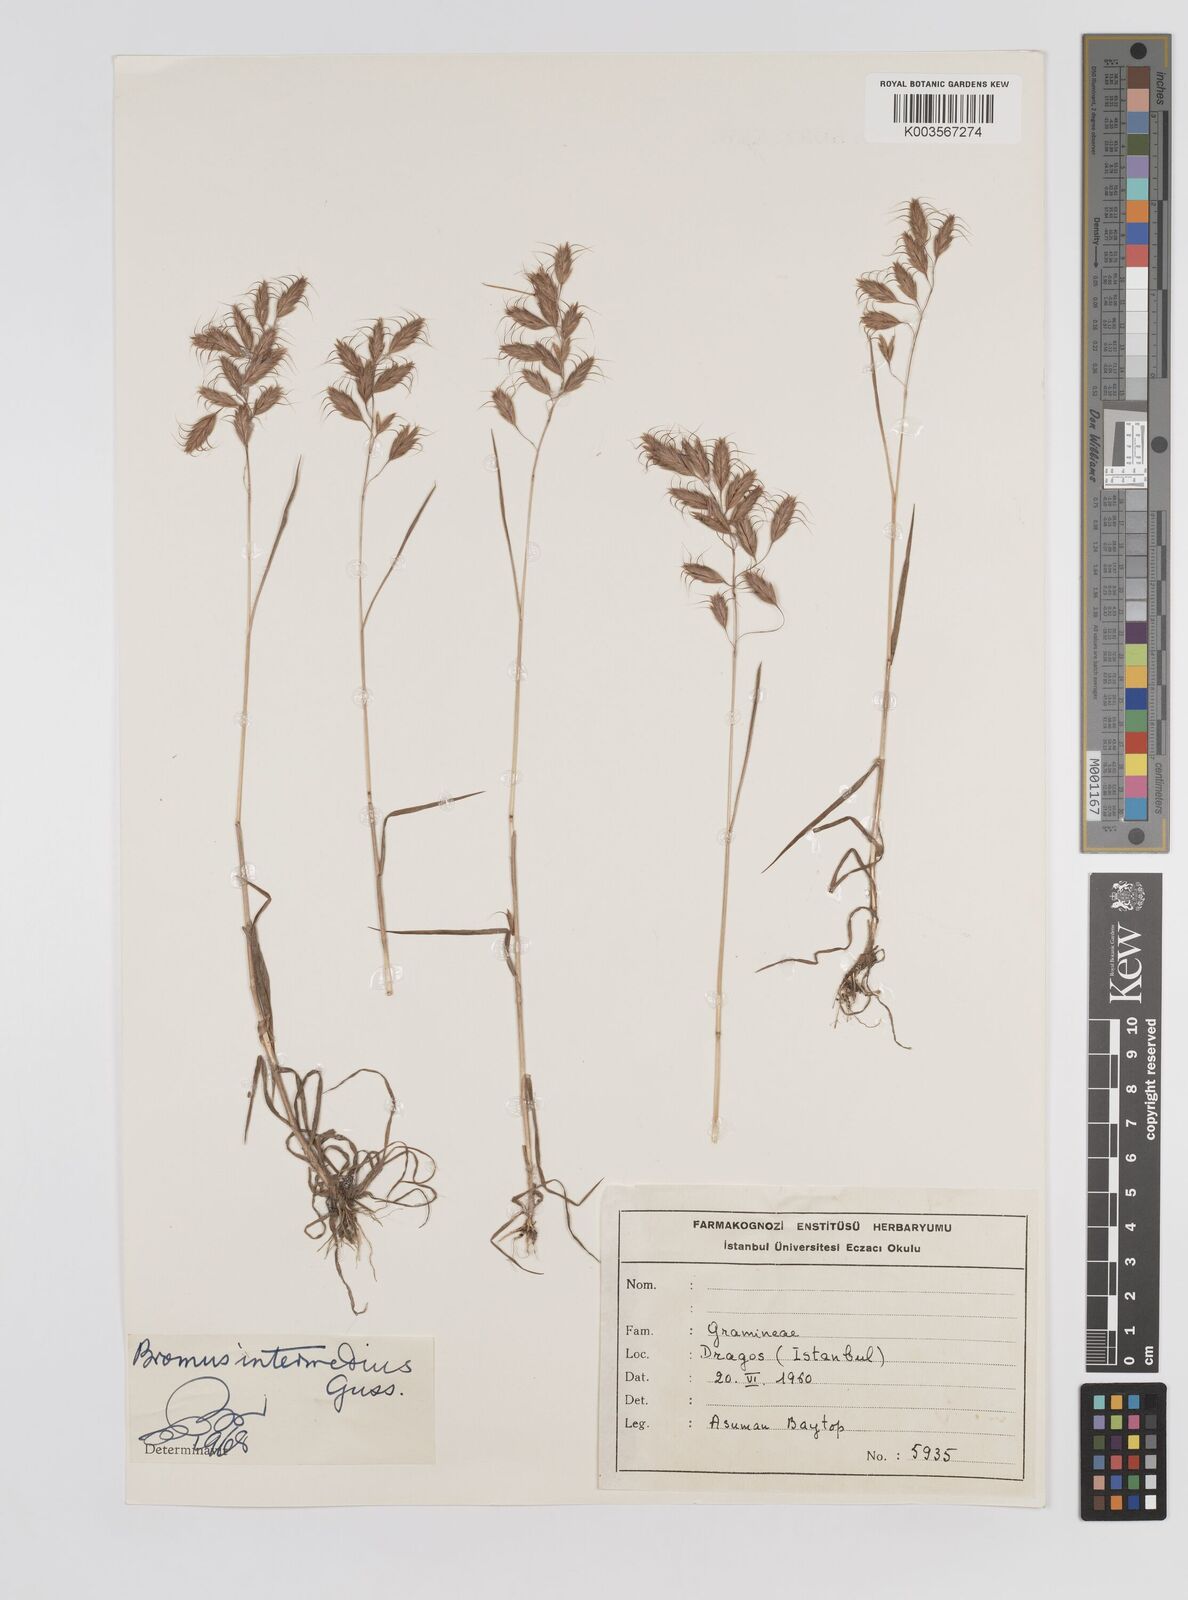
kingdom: Plantae
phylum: Tracheophyta
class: Liliopsida
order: Poales
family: Poaceae
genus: Bromus
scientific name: Bromus intermedius
